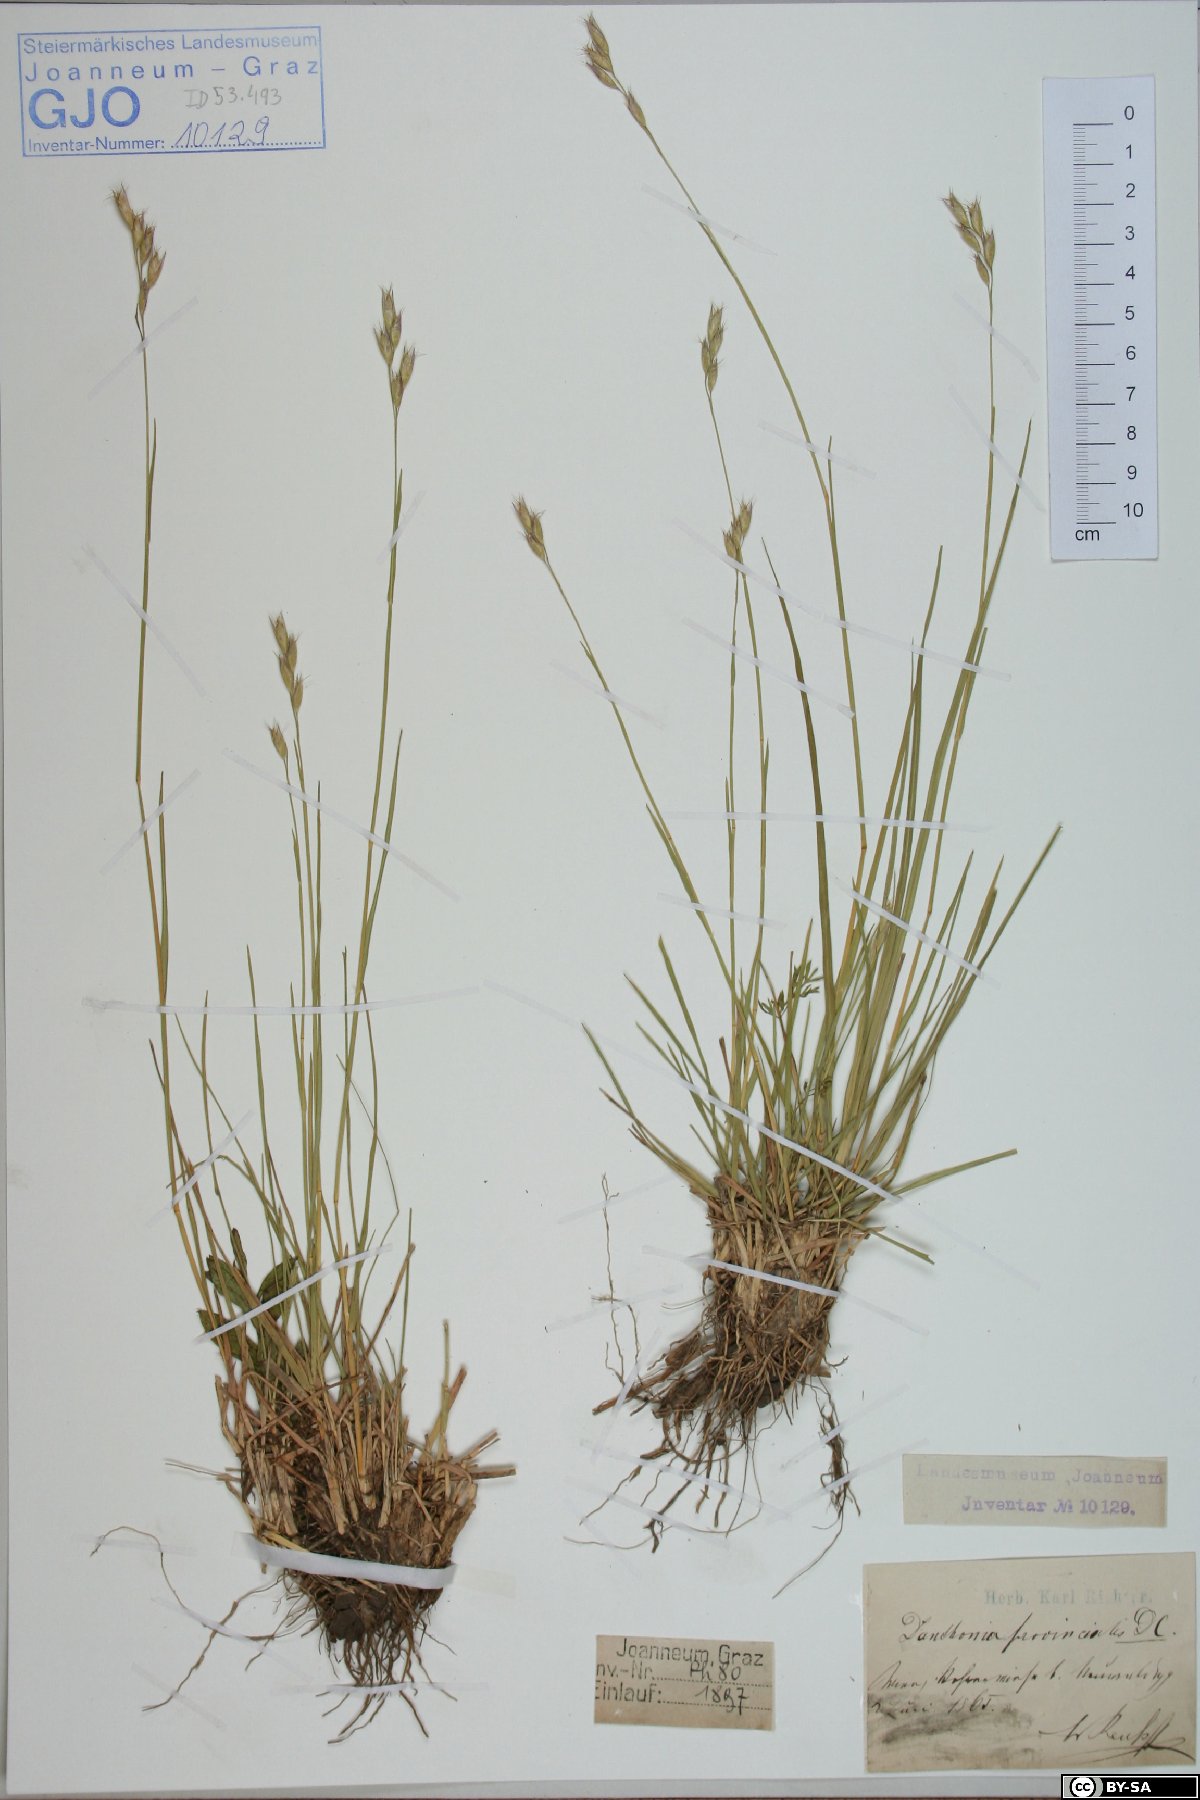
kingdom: Plantae
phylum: Tracheophyta
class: Liliopsida
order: Poales
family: Poaceae
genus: Danthonia
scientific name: Danthonia alpina
